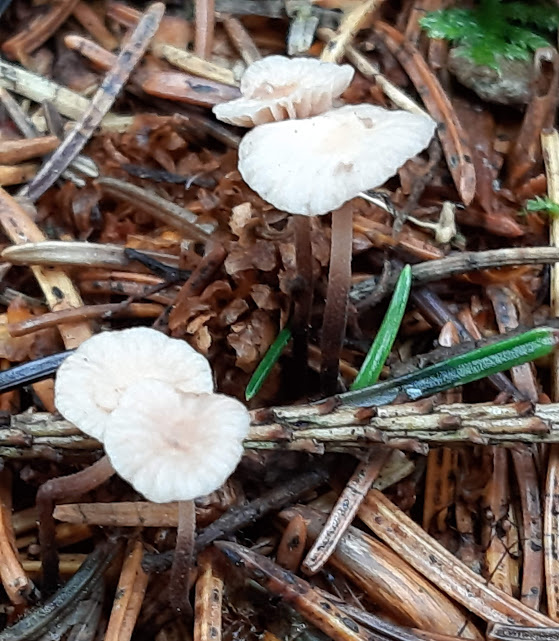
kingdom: Fungi
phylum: Basidiomycota
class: Agaricomycetes
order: Agaricales
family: Omphalotaceae
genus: Paragymnopus
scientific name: Paragymnopus perforans
